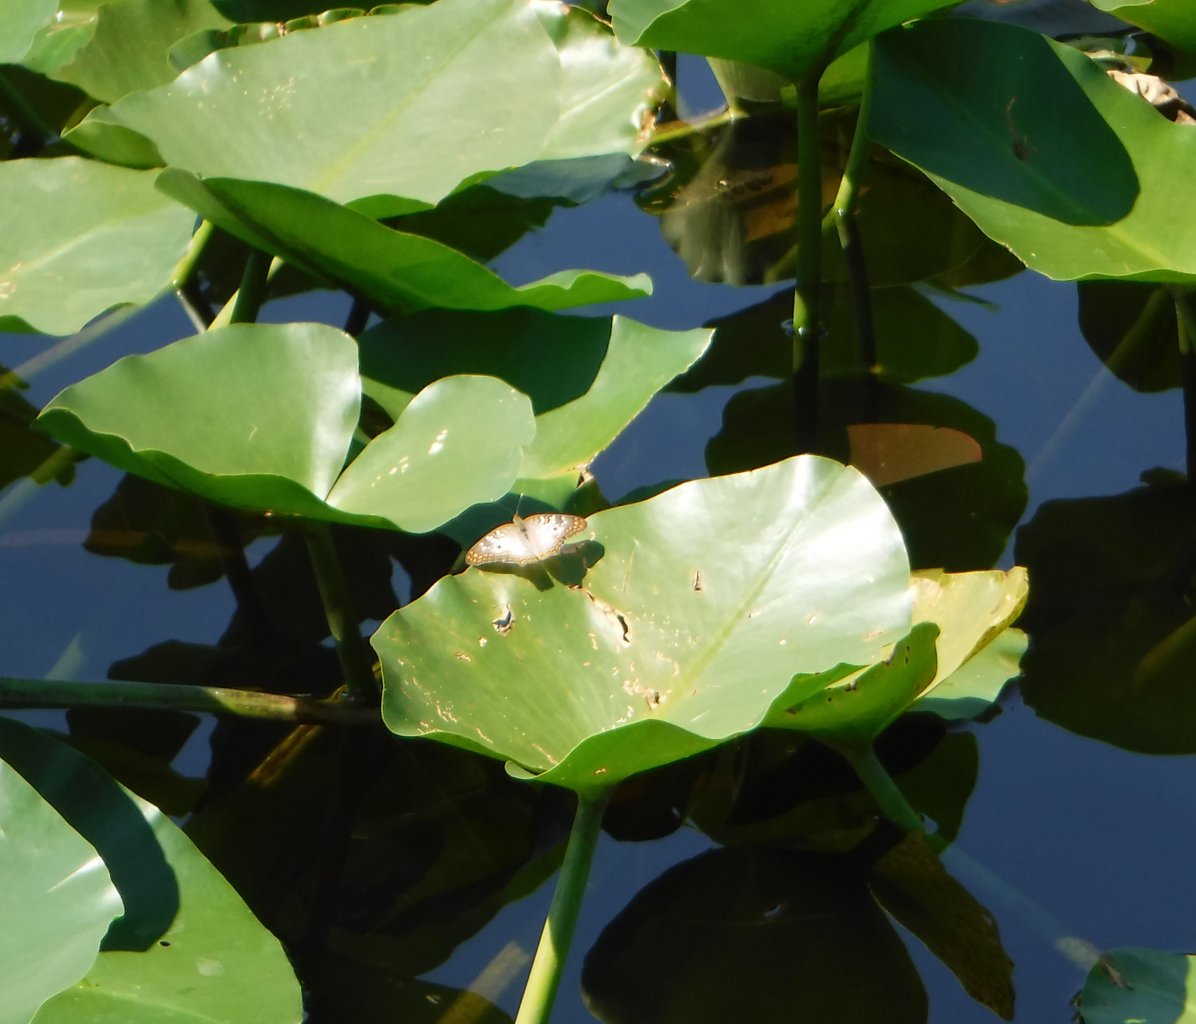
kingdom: Animalia
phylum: Arthropoda
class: Insecta
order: Lepidoptera
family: Nymphalidae
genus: Anartia
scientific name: Anartia jatrophae
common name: White Peacock
